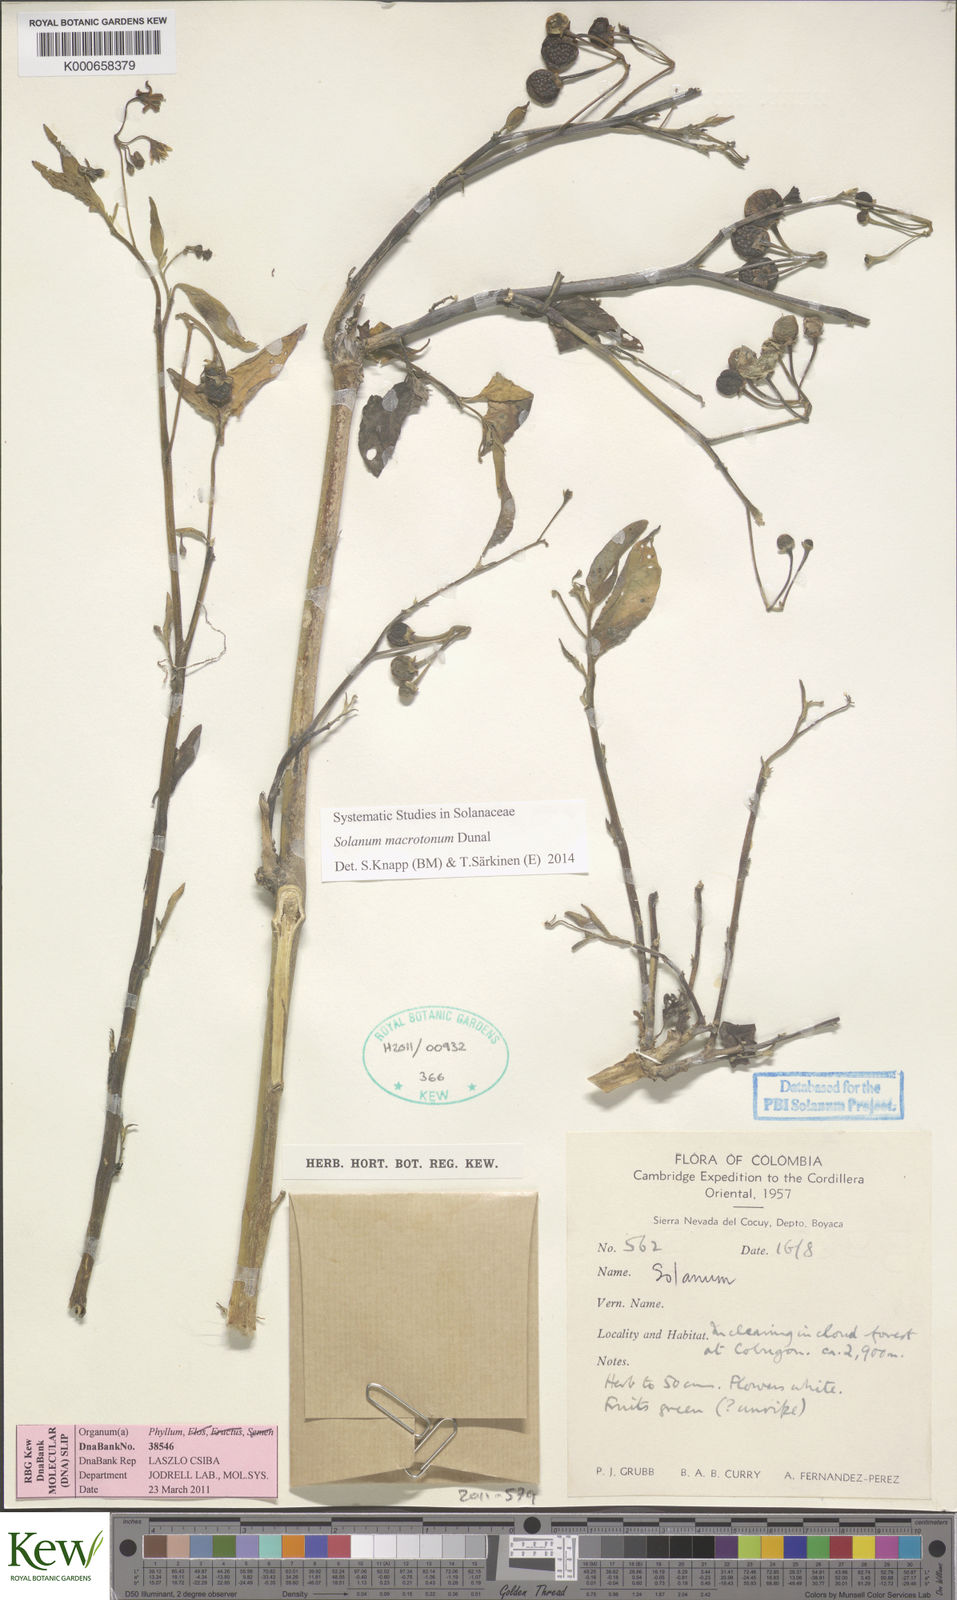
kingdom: Plantae
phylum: Tracheophyta
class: Magnoliopsida
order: Solanales
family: Solanaceae
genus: Solanum
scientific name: Solanum macrotonum
